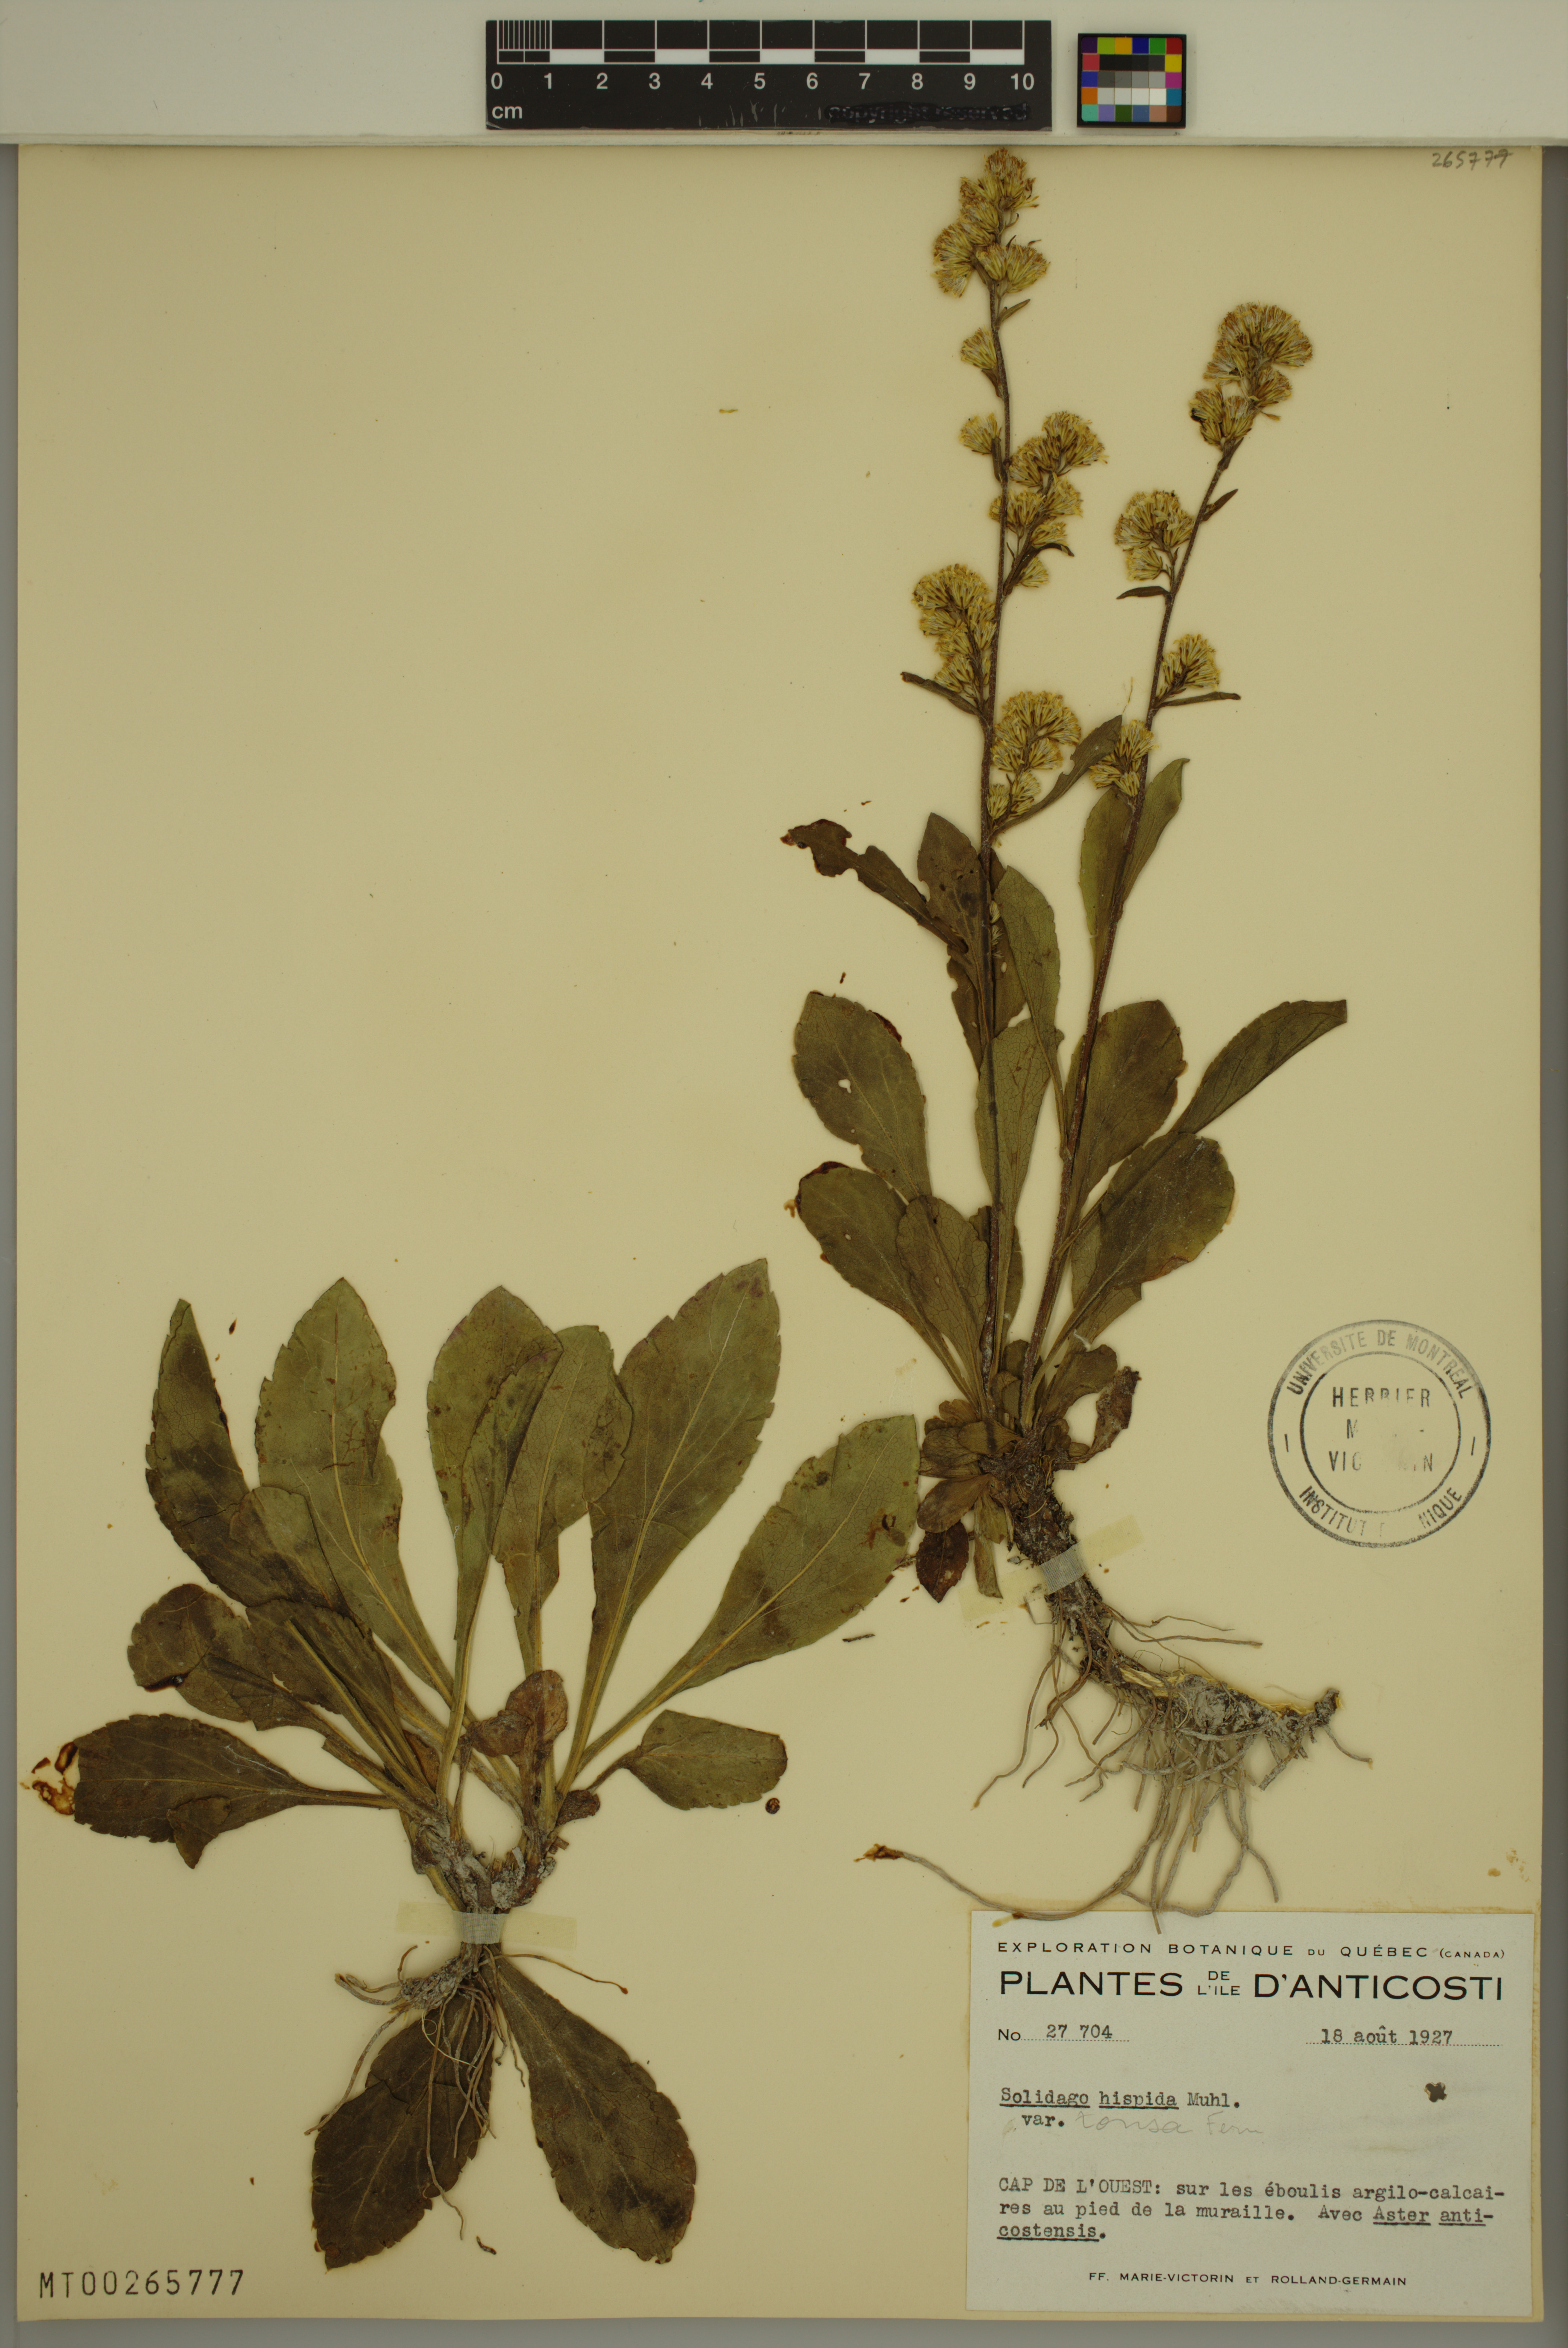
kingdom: Plantae
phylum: Tracheophyta
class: Magnoliopsida
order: Asterales
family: Asteraceae
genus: Solidago
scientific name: Solidago hispida
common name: Hairy goldenrod
